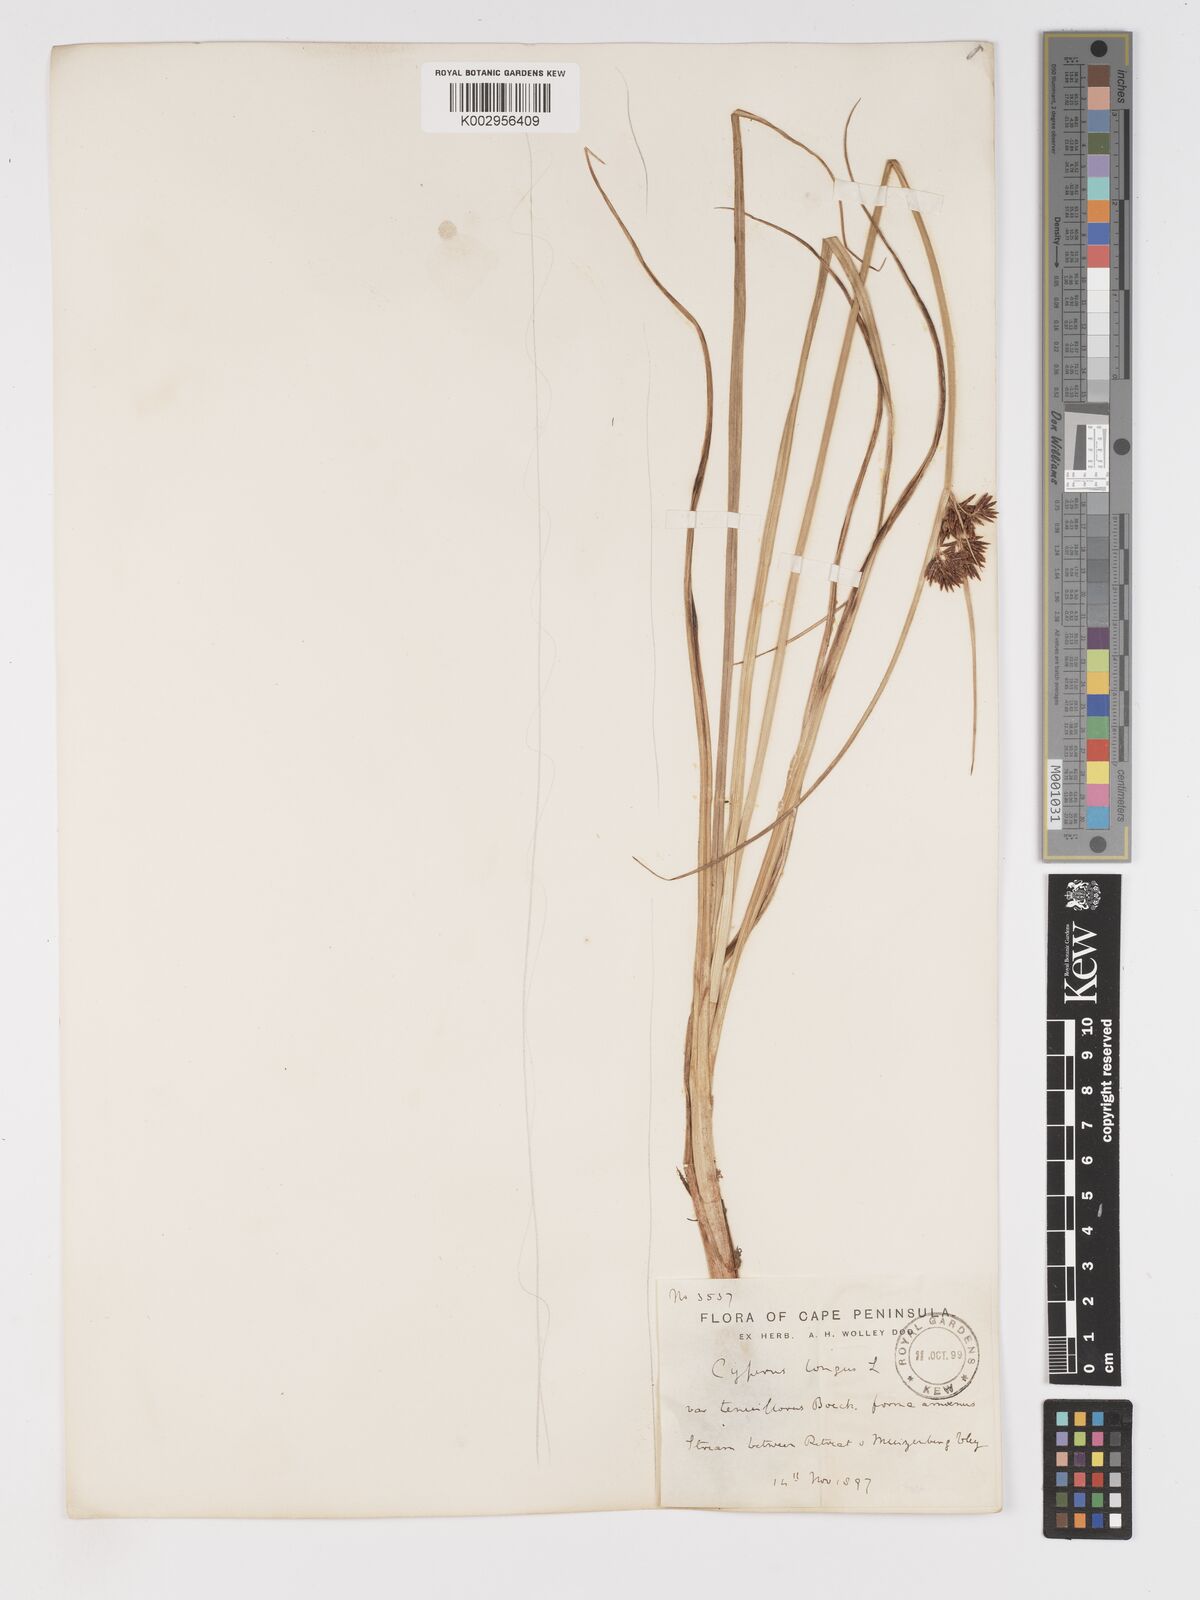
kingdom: Plantae
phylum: Tracheophyta
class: Liliopsida
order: Poales
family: Cyperaceae
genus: Cyperus
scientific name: Cyperus longus
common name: Galingale
